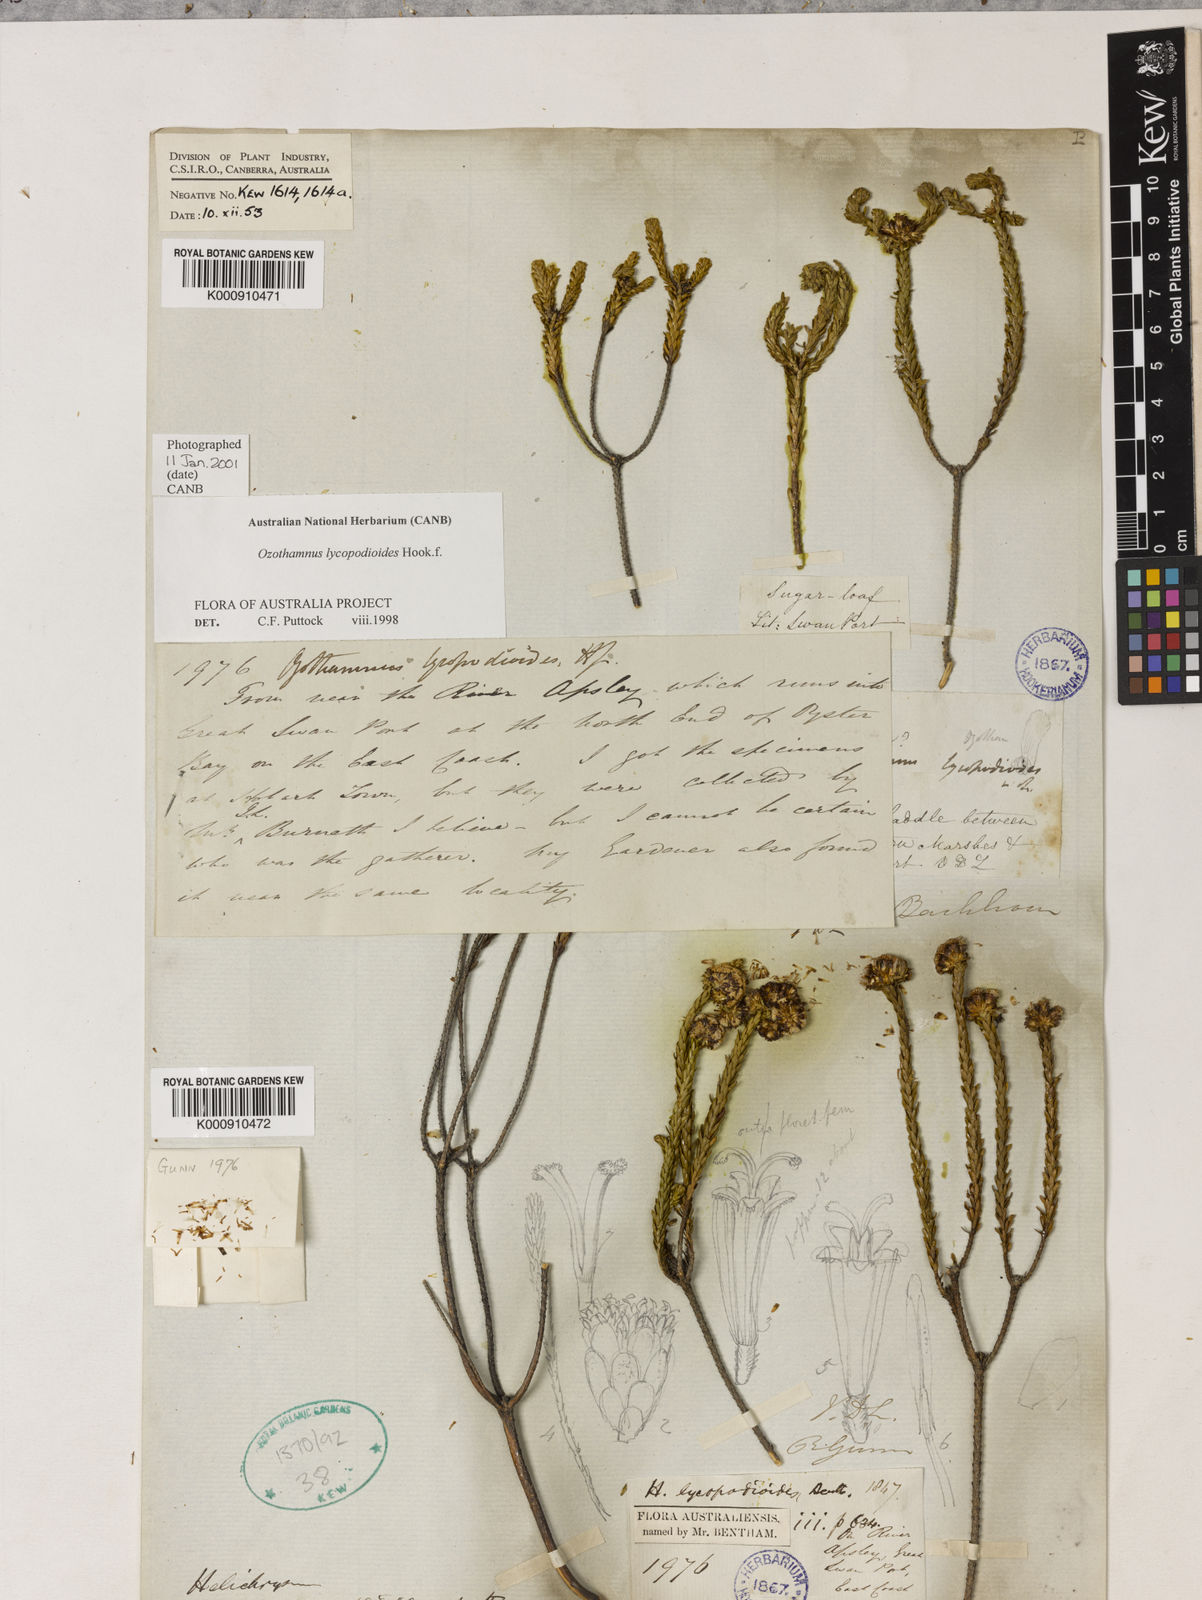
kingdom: Plantae
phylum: Tracheophyta
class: Magnoliopsida
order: Asterales
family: Asteraceae
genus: Ozothamnus
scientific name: Ozothamnus lycopodioides
